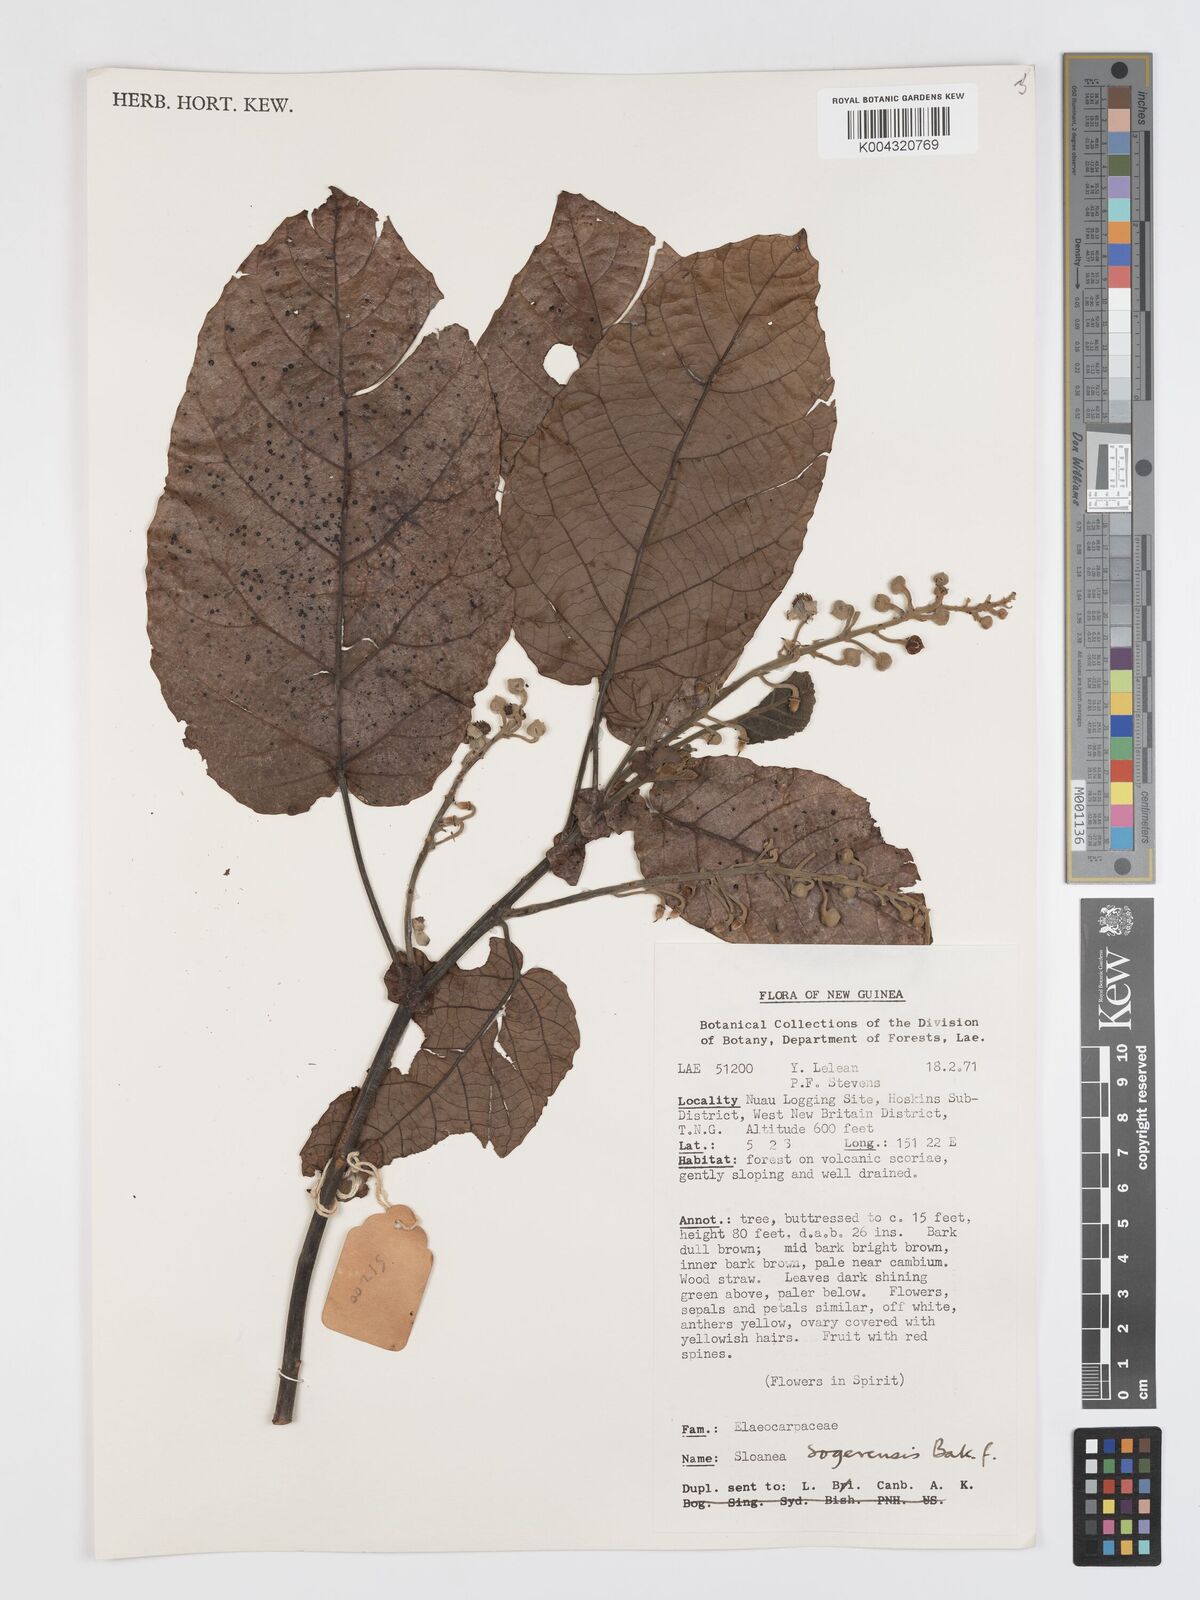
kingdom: Plantae
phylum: Tracheophyta
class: Magnoliopsida
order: Oxalidales
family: Elaeocarpaceae
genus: Sloanea
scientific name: Sloanea sogerensis
